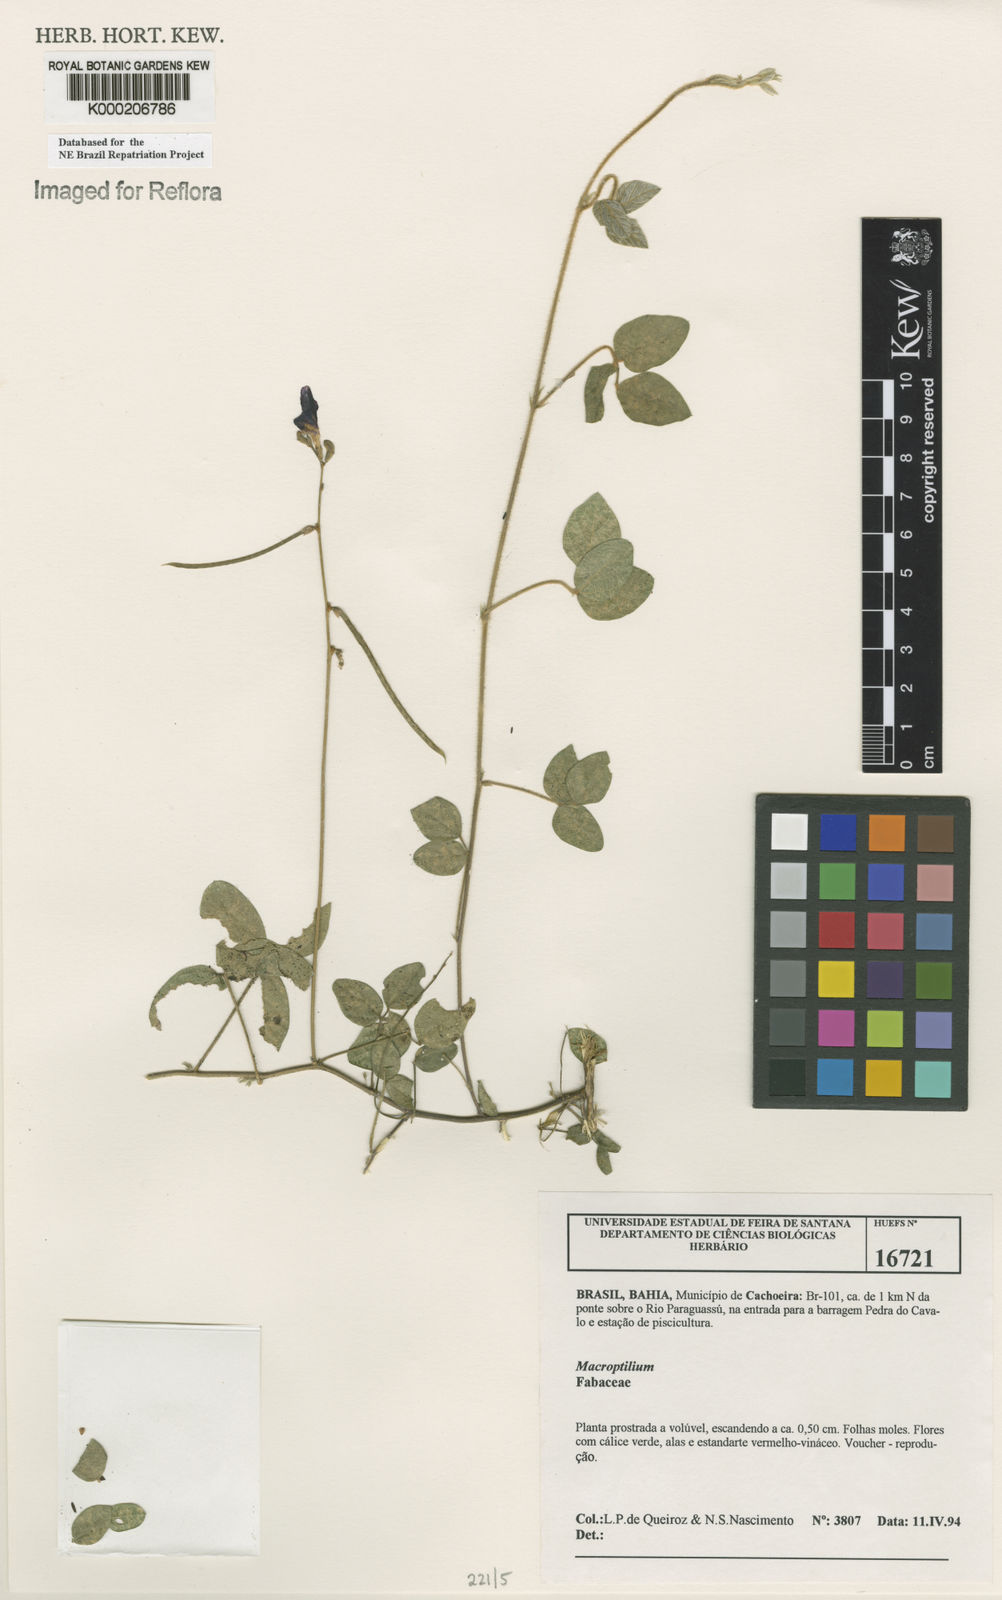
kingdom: Plantae
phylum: Tracheophyta
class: Magnoliopsida
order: Fabales
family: Fabaceae
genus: Macroptilium
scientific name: Macroptilium
